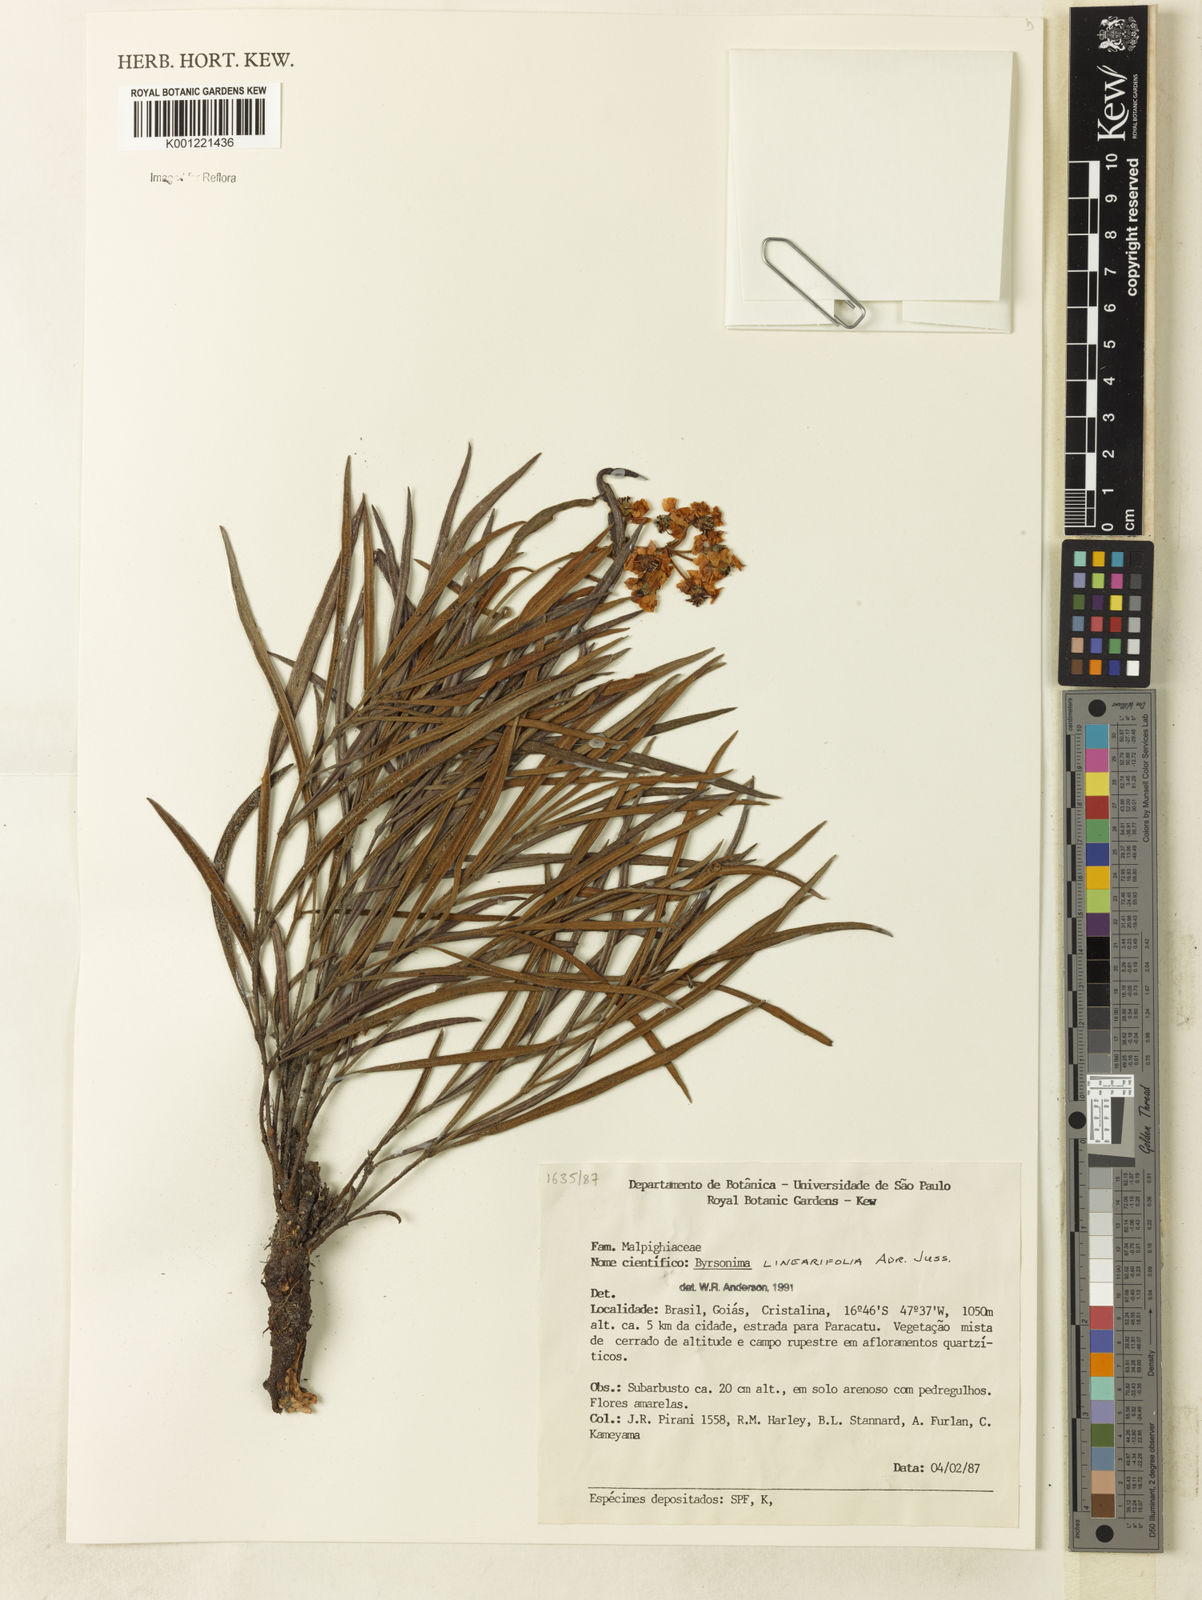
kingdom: Plantae
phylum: Tracheophyta
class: Magnoliopsida
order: Malpighiales
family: Malpighiaceae
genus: Byrsonima
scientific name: Byrsonima linearifolia
